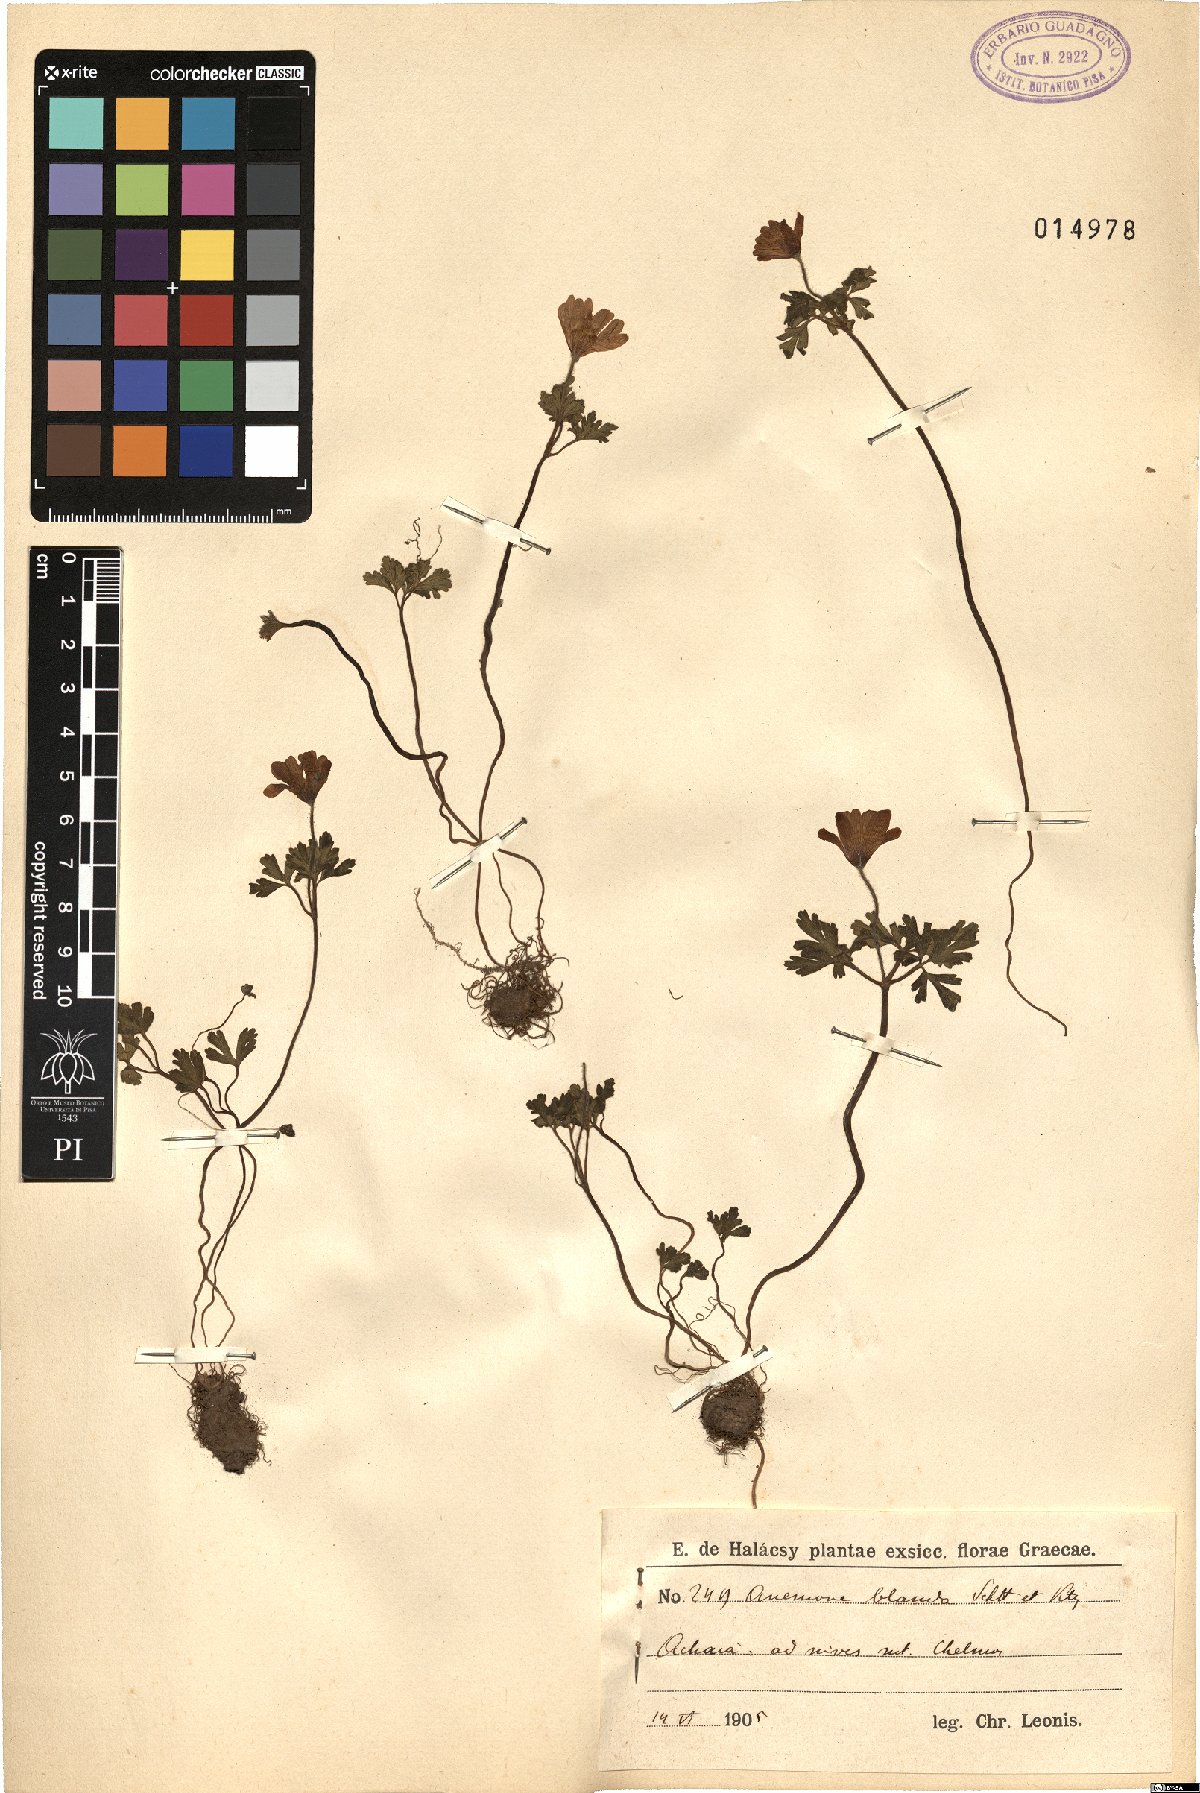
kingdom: Plantae
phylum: Tracheophyta
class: Magnoliopsida
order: Ranunculales
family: Ranunculaceae
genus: Anemone
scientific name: Anemone blanda
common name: Balkan anemone
